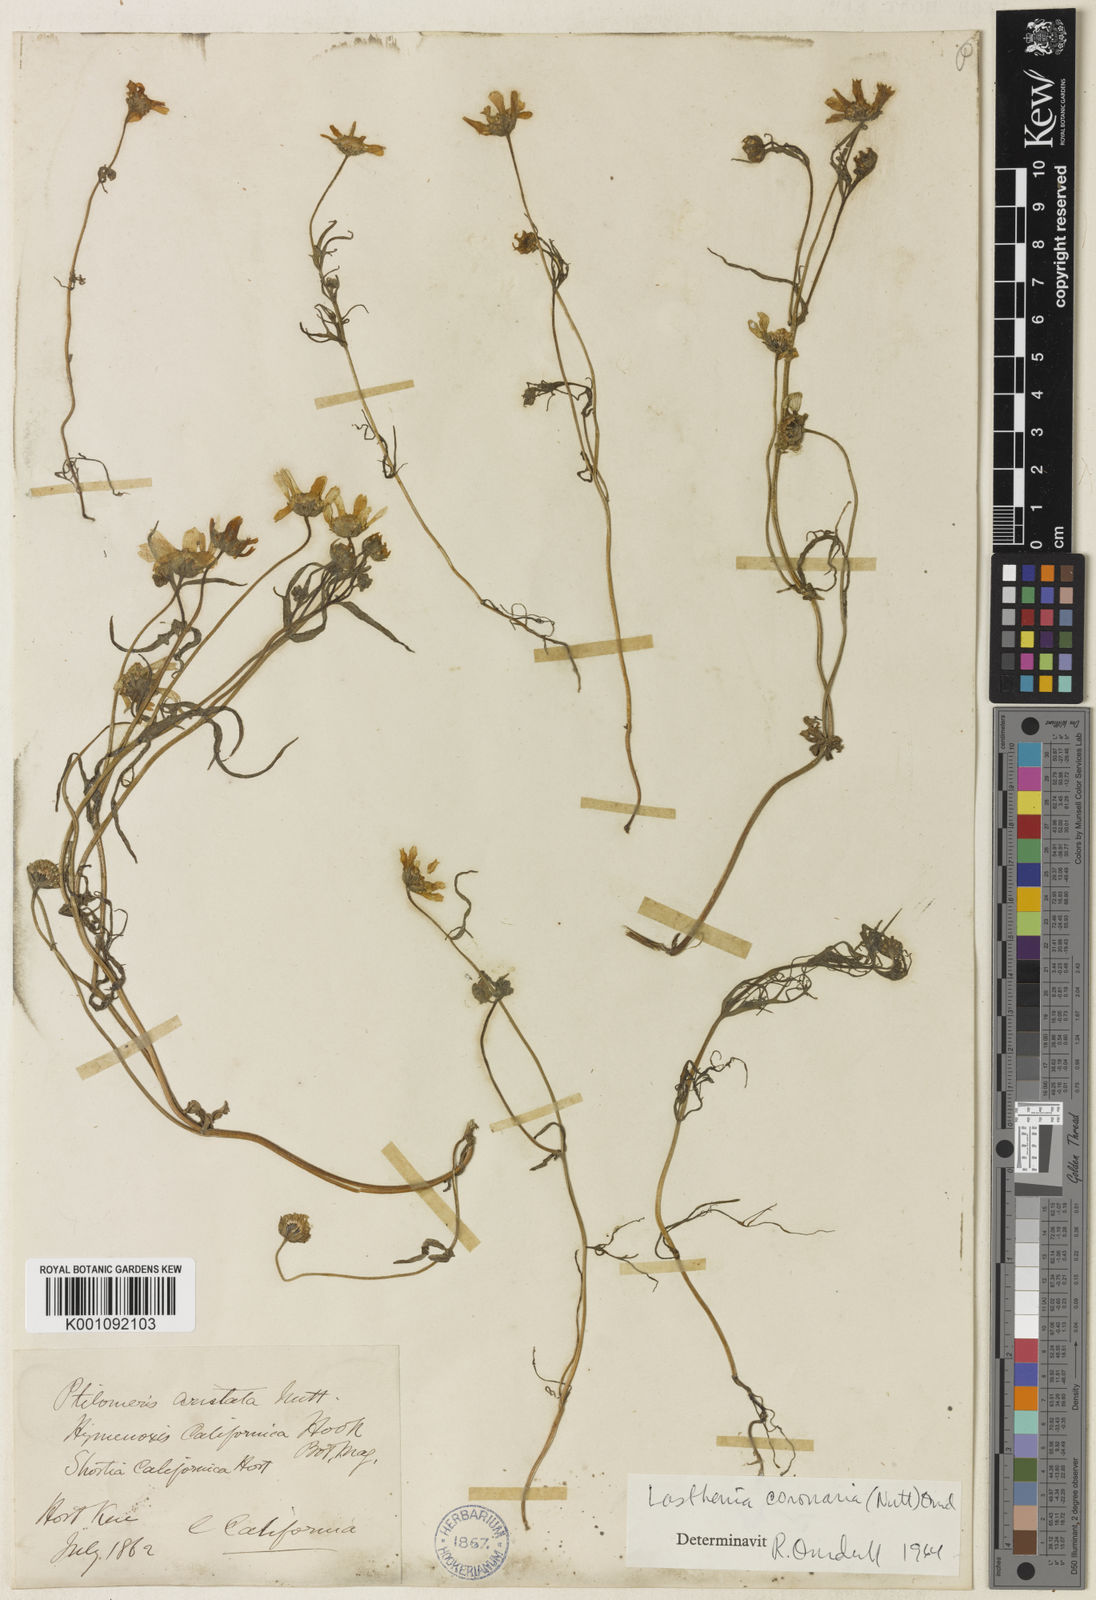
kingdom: Plantae
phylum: Tracheophyta
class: Magnoliopsida
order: Asterales
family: Asteraceae
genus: Lasthenia
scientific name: Lasthenia coronaria
